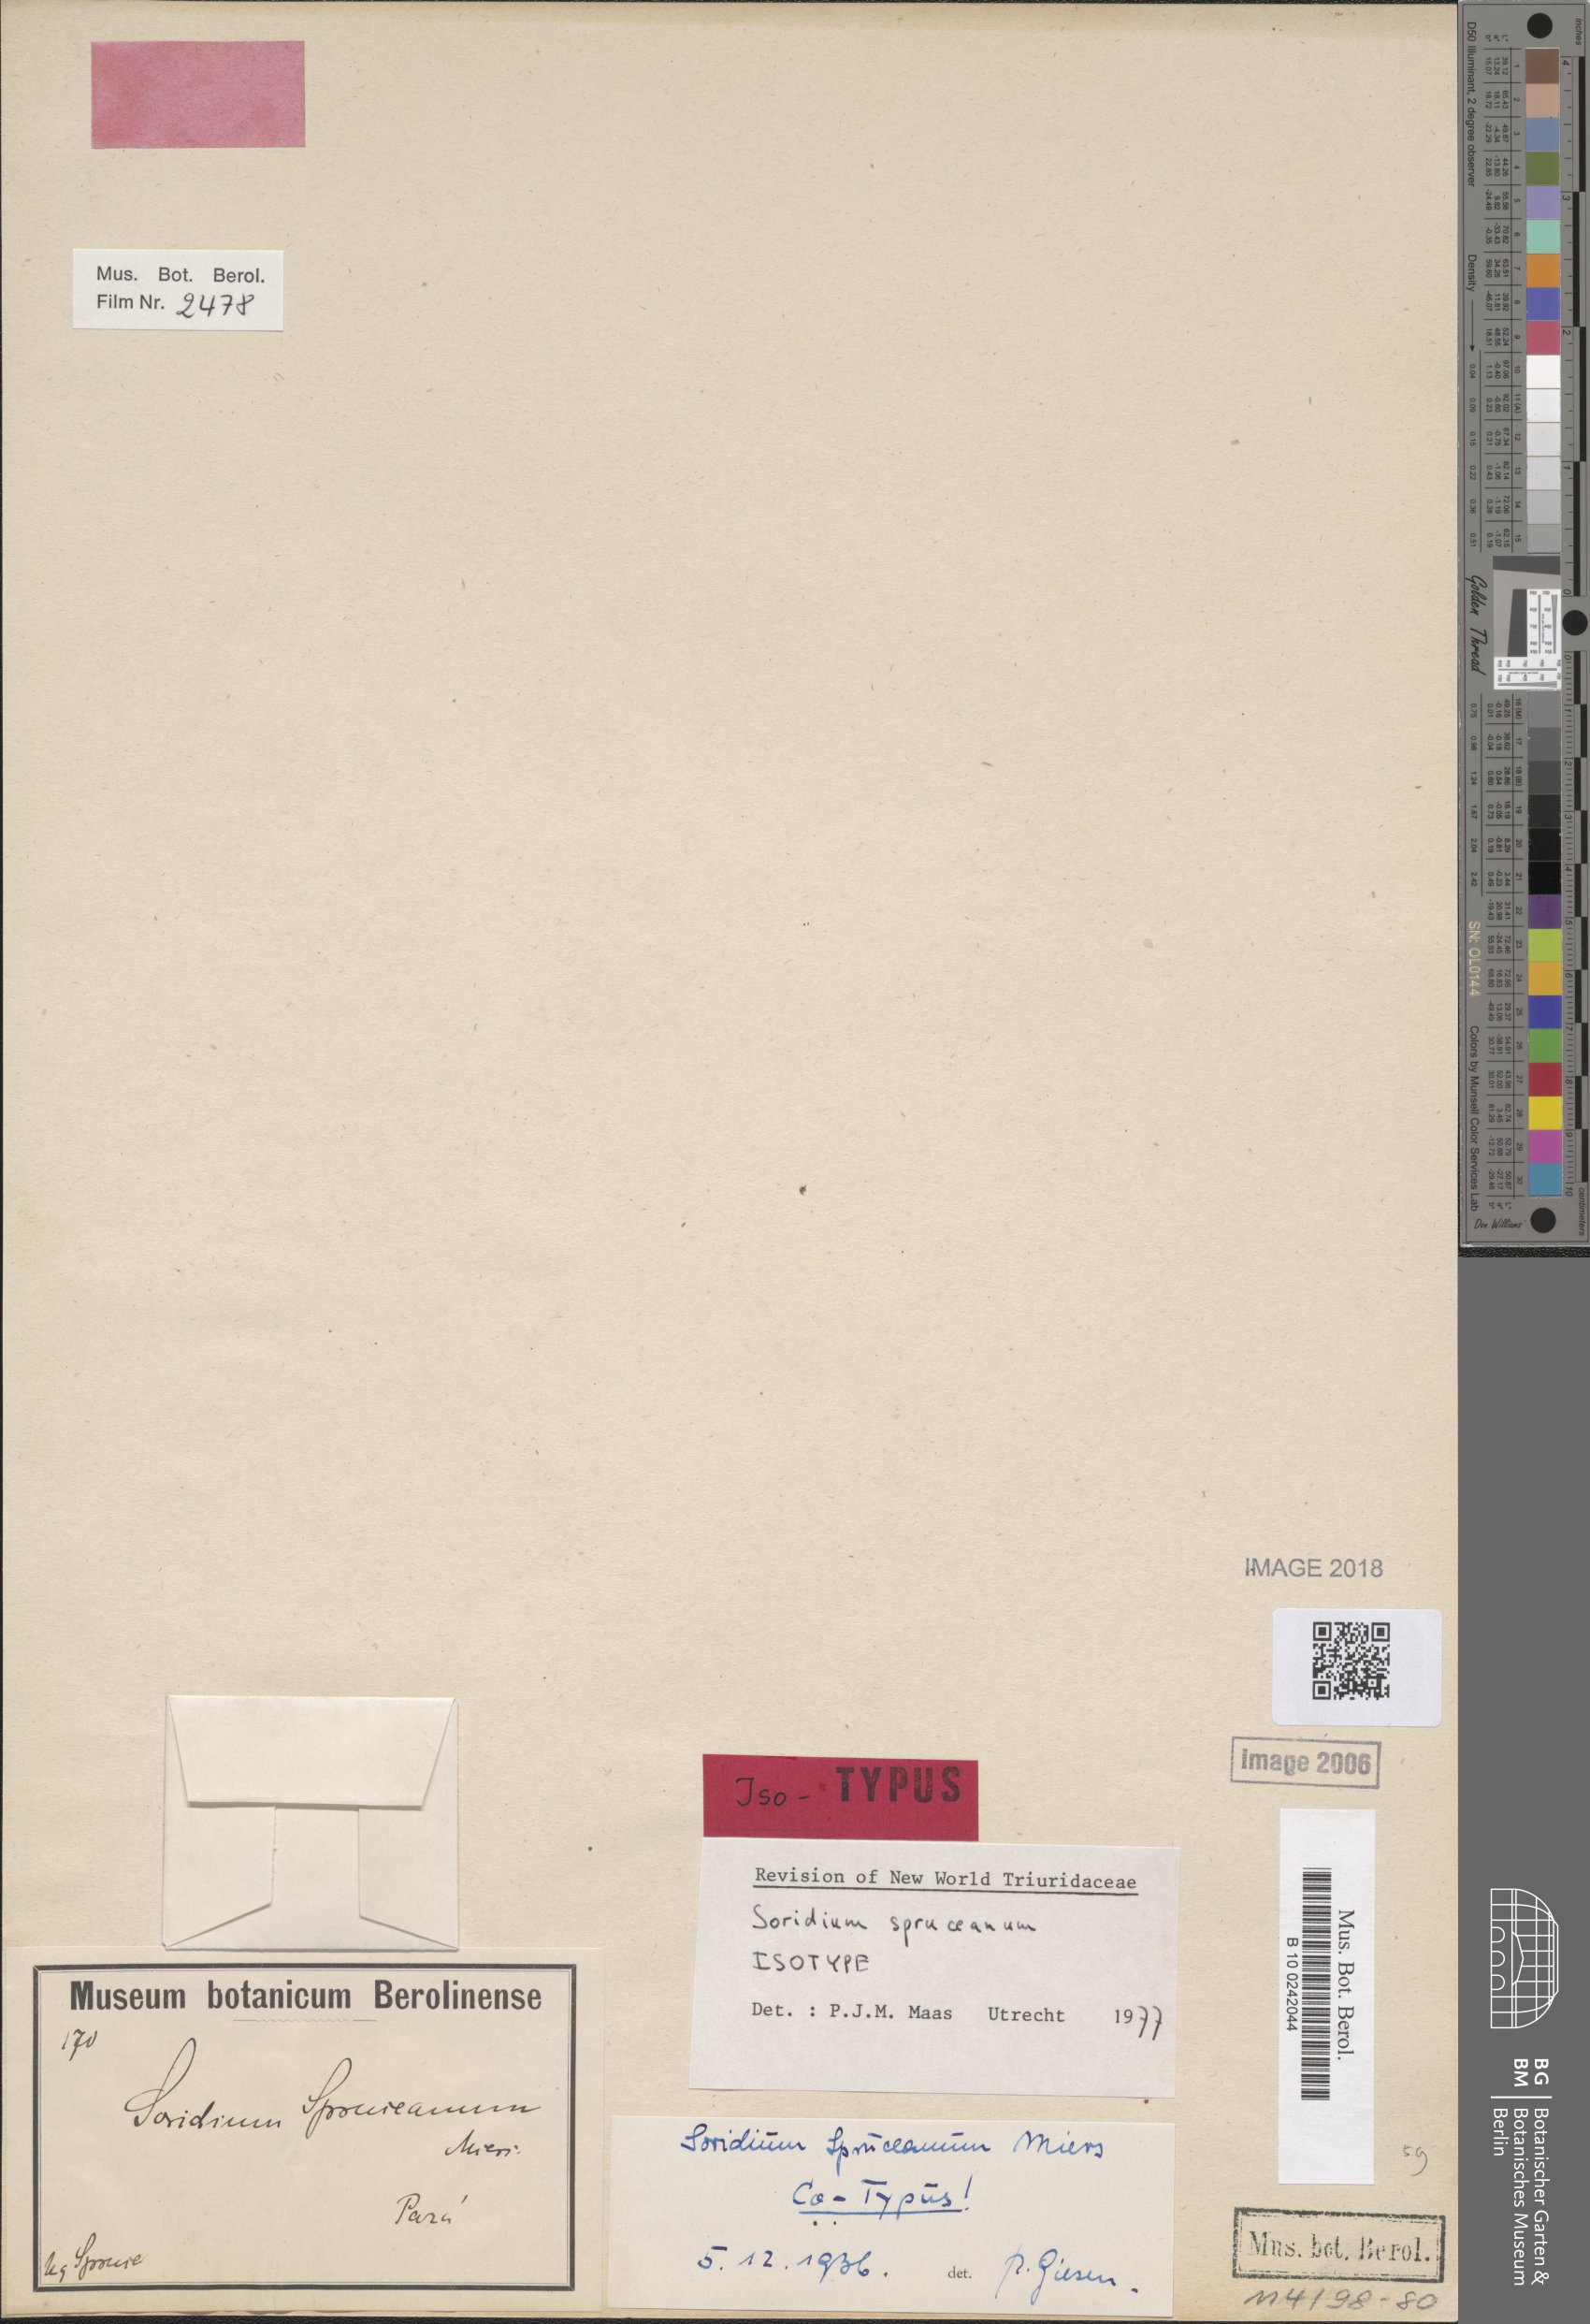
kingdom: Plantae
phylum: Tracheophyta
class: Liliopsida
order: Pandanales
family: Triuridaceae
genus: Soridium
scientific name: Soridium spruceanum
